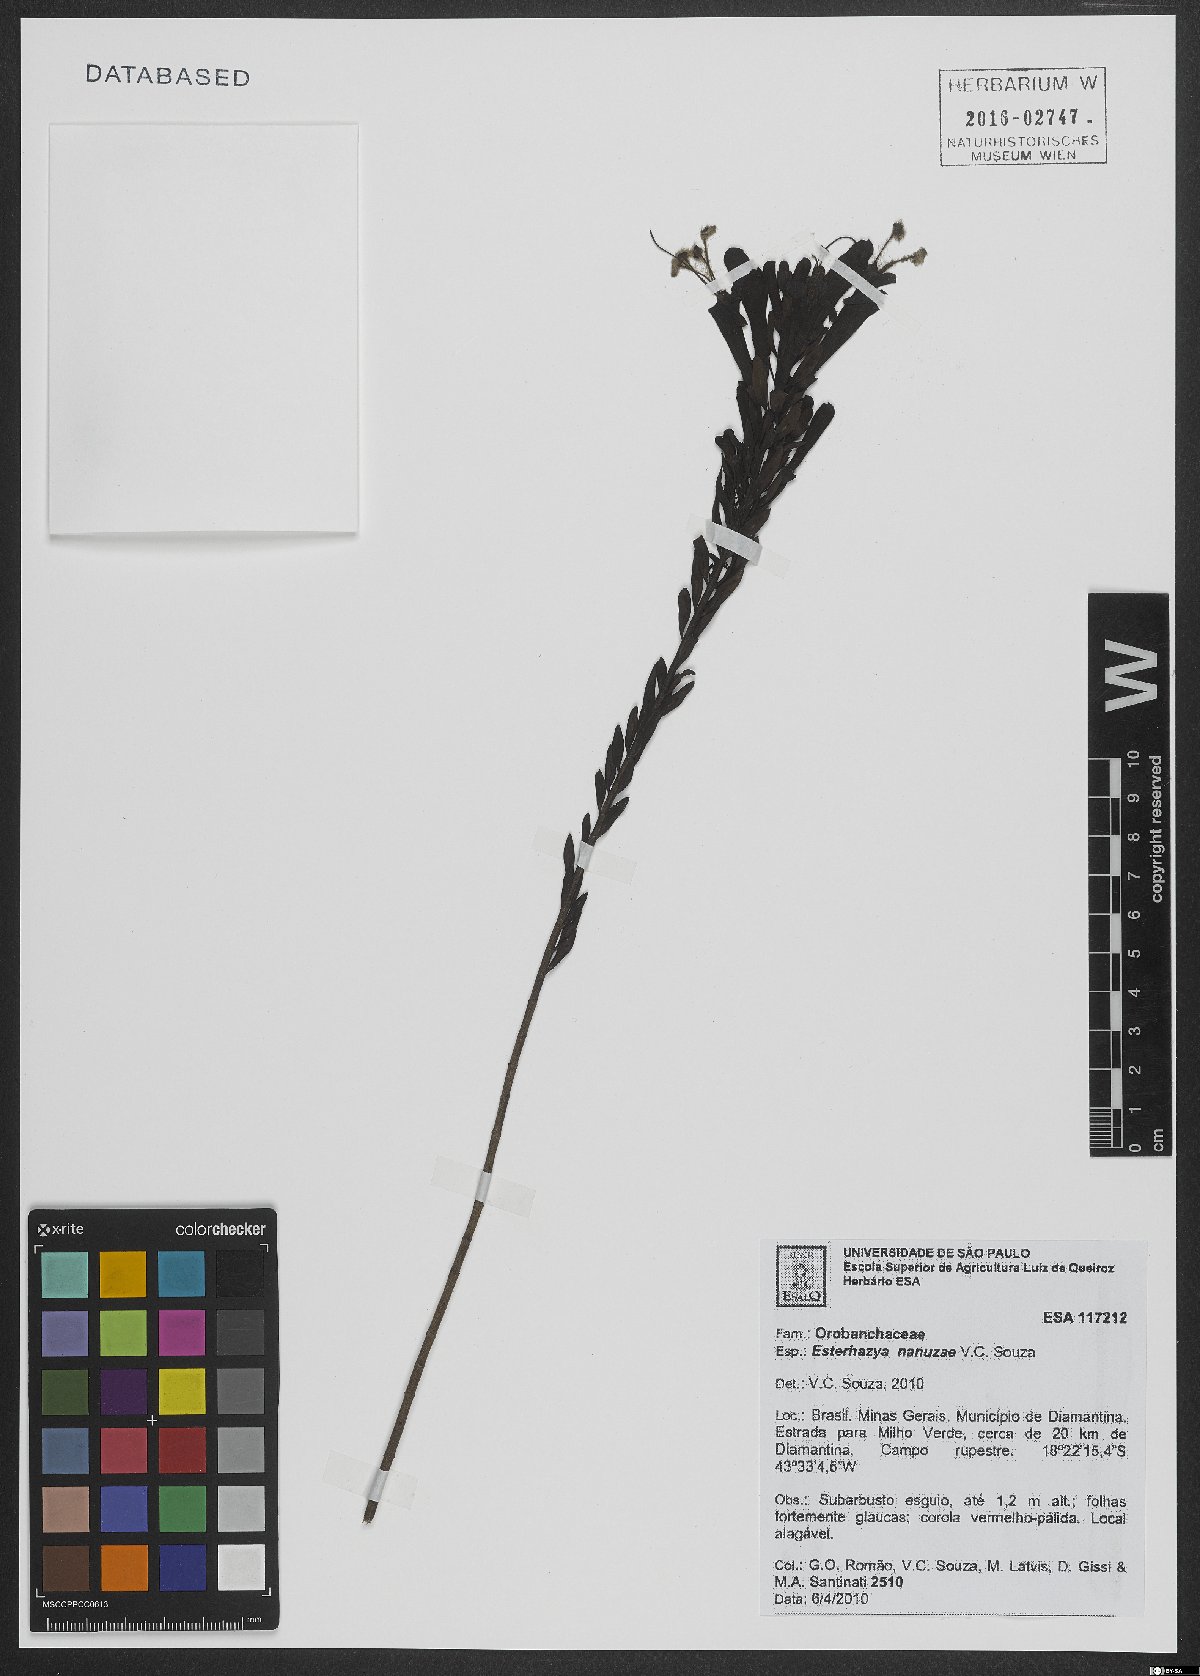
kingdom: Plantae
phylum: Tracheophyta
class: Magnoliopsida
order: Lamiales
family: Orobanchaceae
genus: Esterhazya
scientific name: Esterhazya nanuzae
